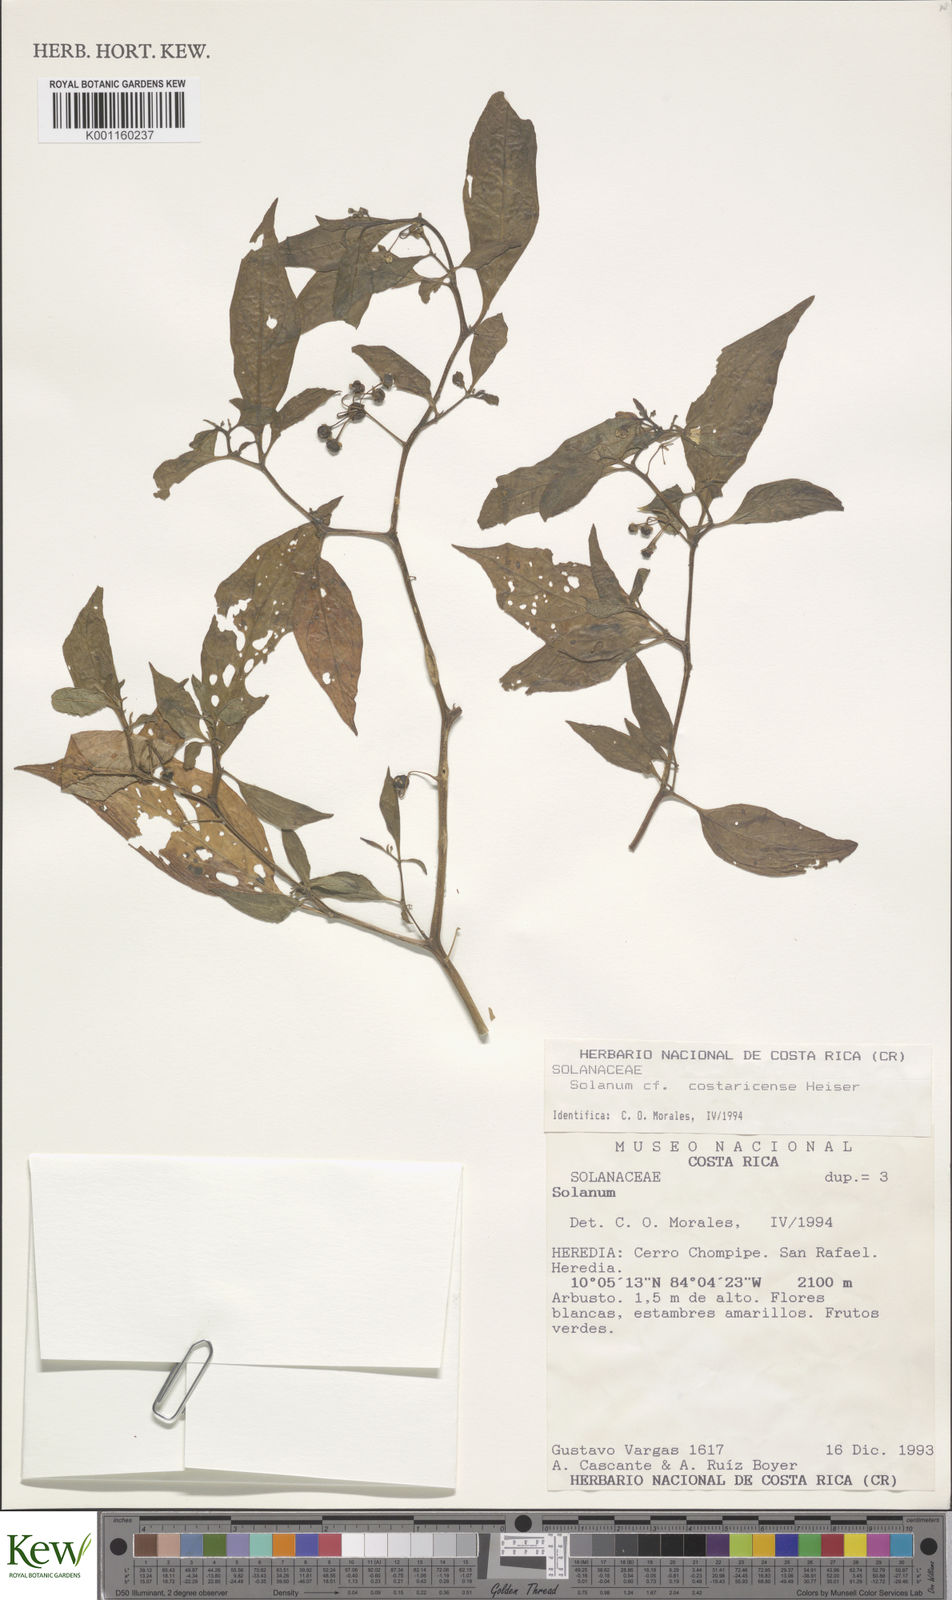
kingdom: Plantae
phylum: Tracheophyta
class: Magnoliopsida
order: Solanales
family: Solanaceae
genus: Solanum
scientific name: Solanum
